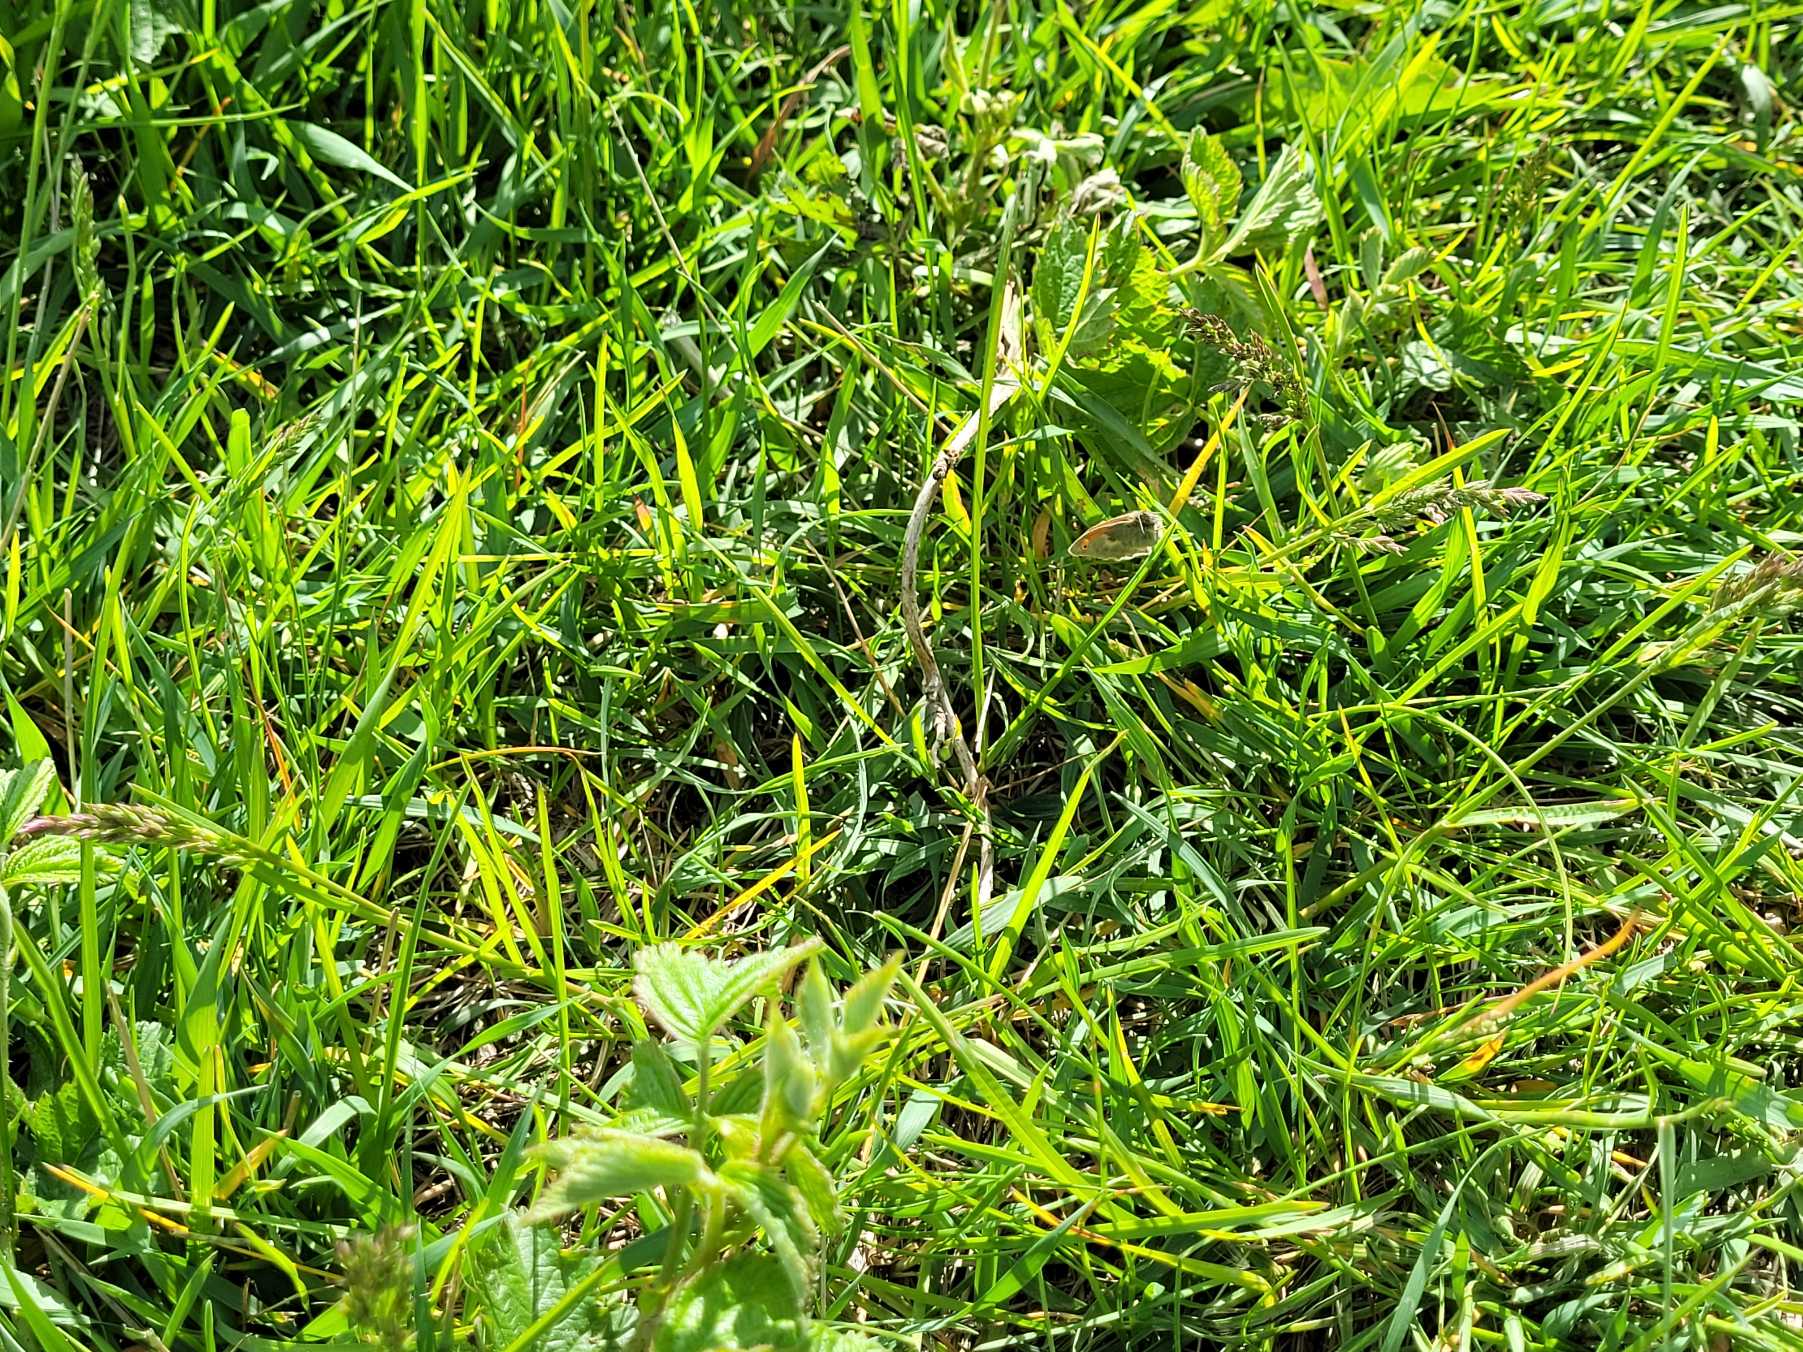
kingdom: Animalia
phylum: Arthropoda
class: Insecta
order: Lepidoptera
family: Nymphalidae
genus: Coenonympha
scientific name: Coenonympha pamphilus
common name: Okkergul randøje
